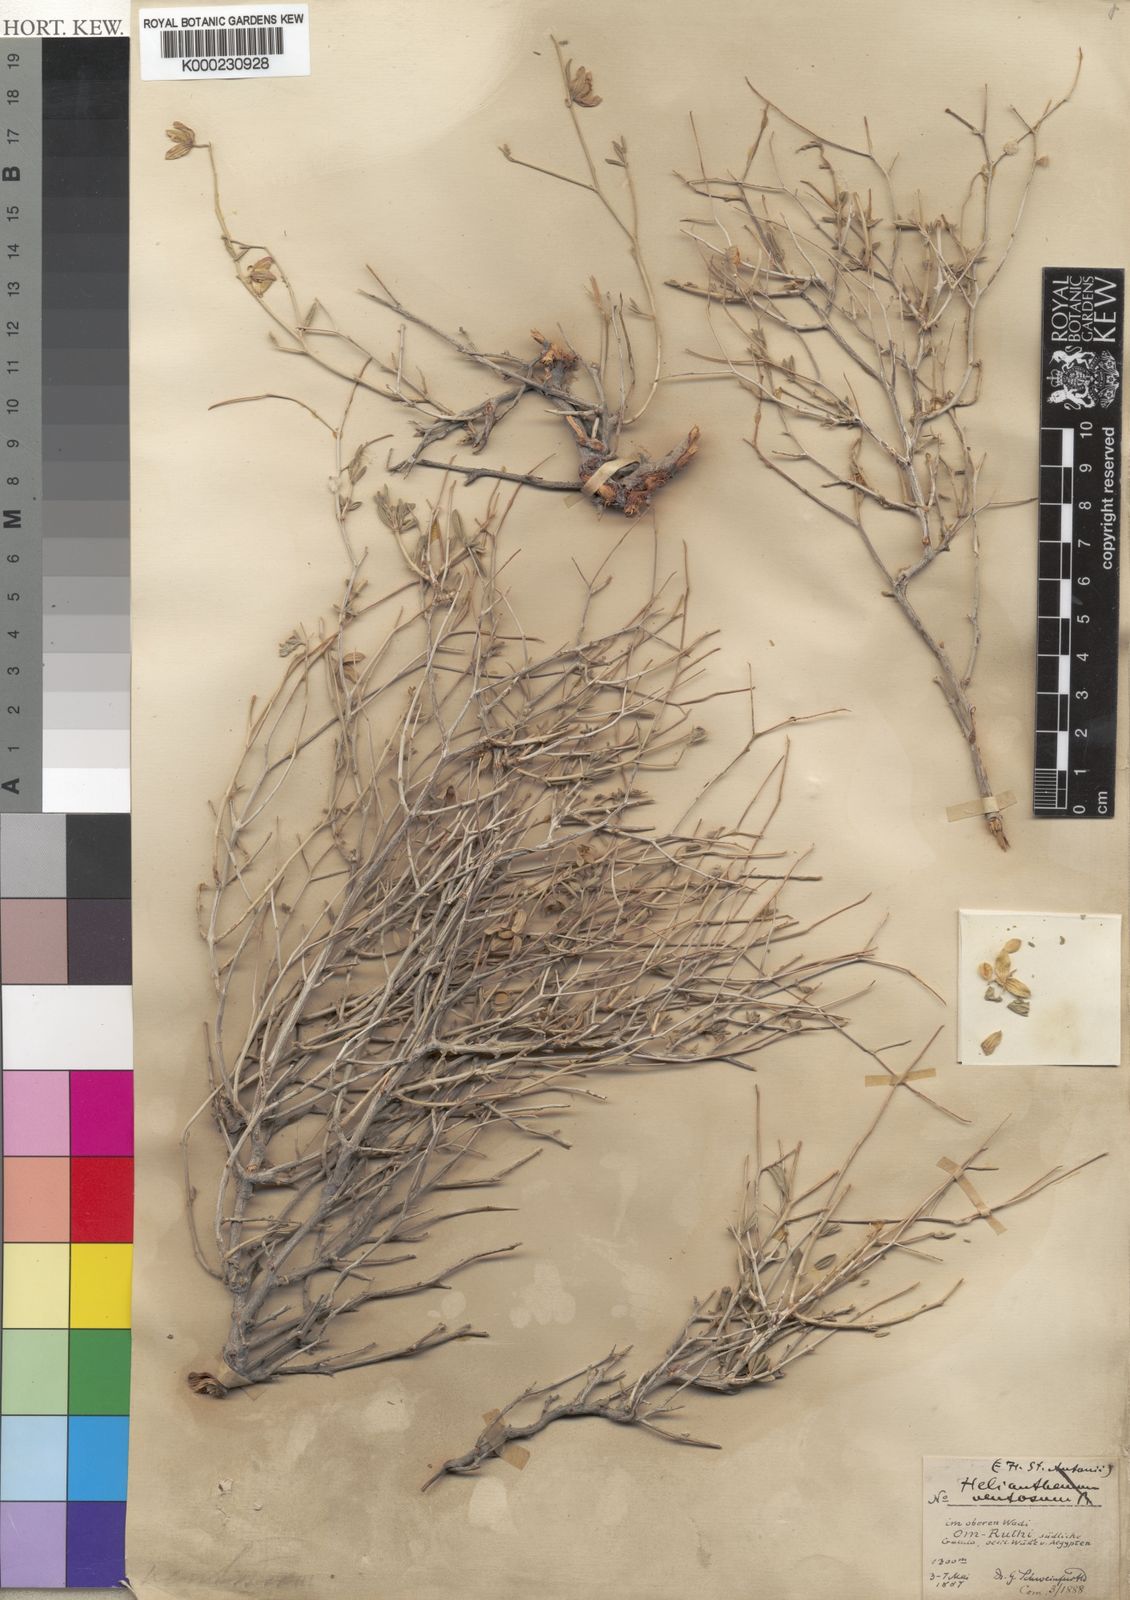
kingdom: Plantae
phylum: Tracheophyta
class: Magnoliopsida
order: Malvales
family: Cistaceae
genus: Helianthemum
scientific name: Helianthemum
